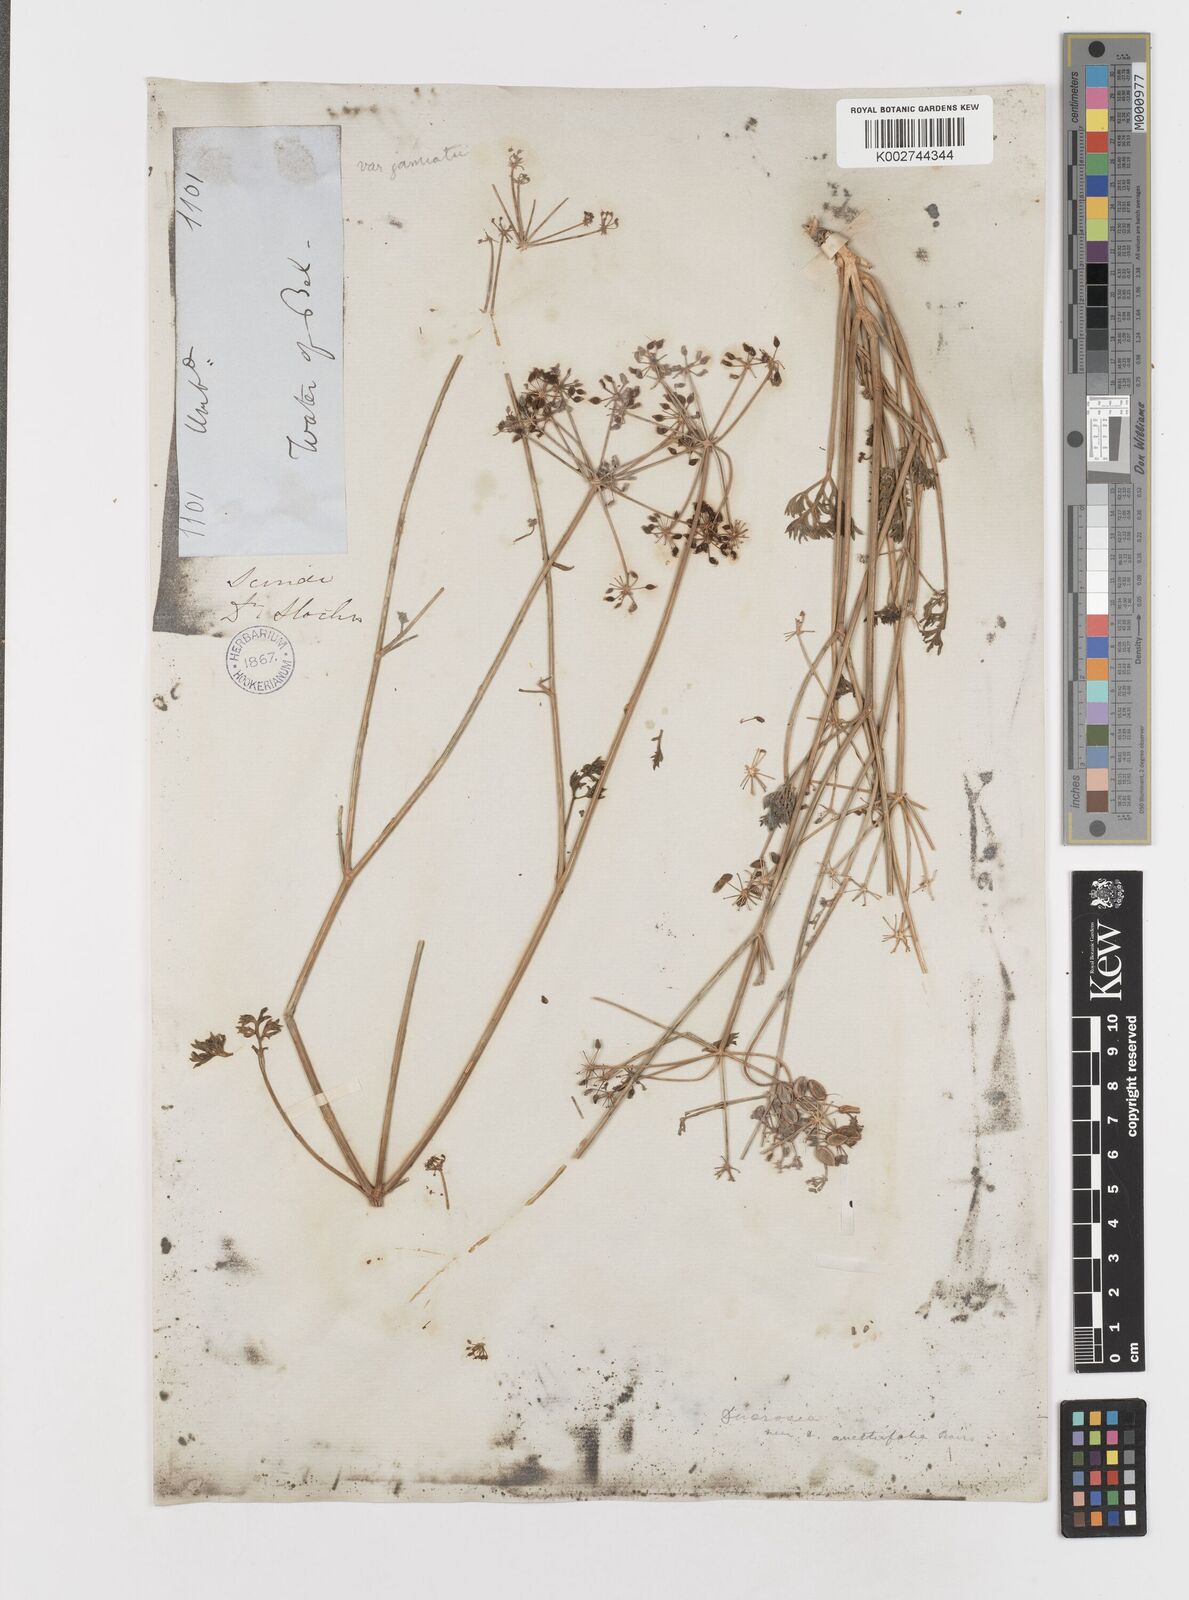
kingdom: Plantae
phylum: Tracheophyta
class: Magnoliopsida
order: Apiales
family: Apiaceae
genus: Ducrosia
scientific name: Ducrosia anethifolia
